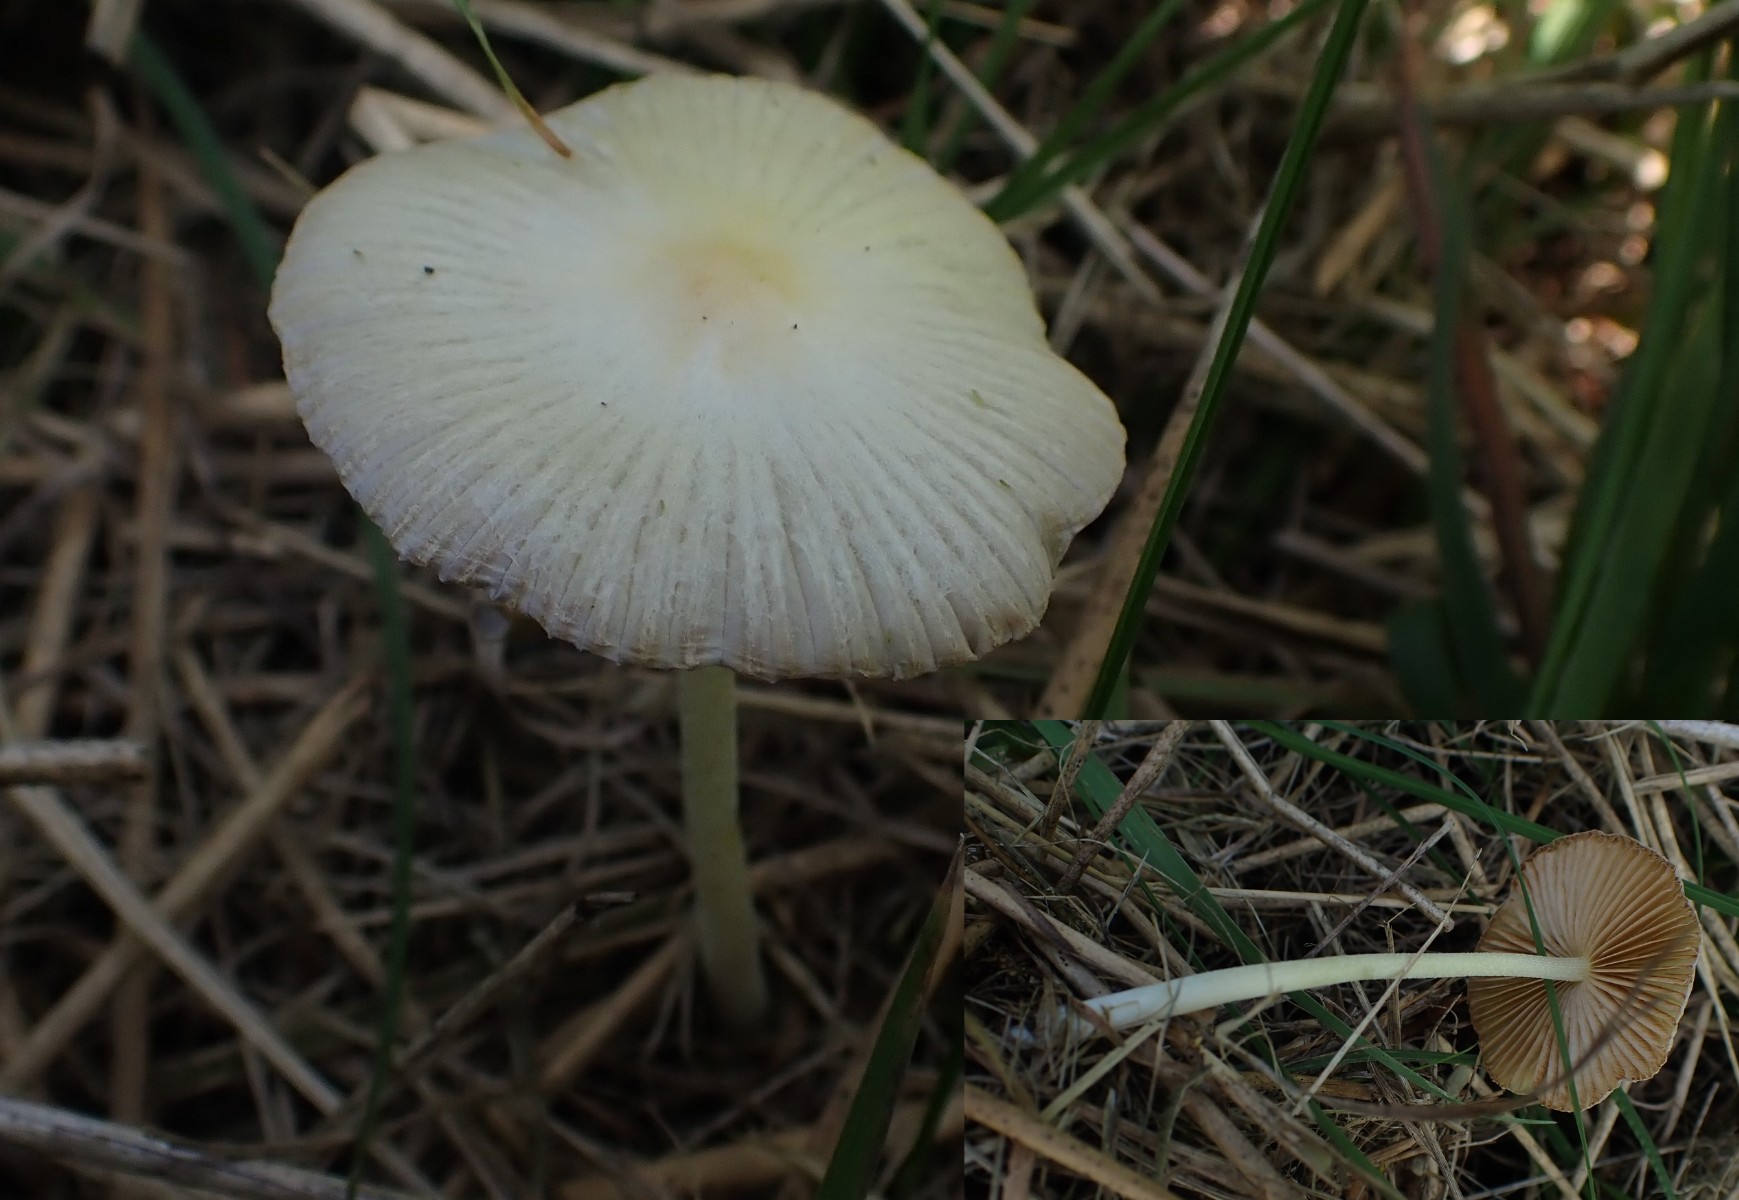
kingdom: Fungi
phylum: Basidiomycota
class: Agaricomycetes
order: Agaricales
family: Bolbitiaceae
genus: Bolbitius
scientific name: Bolbitius titubans
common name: almindelig gulhat
